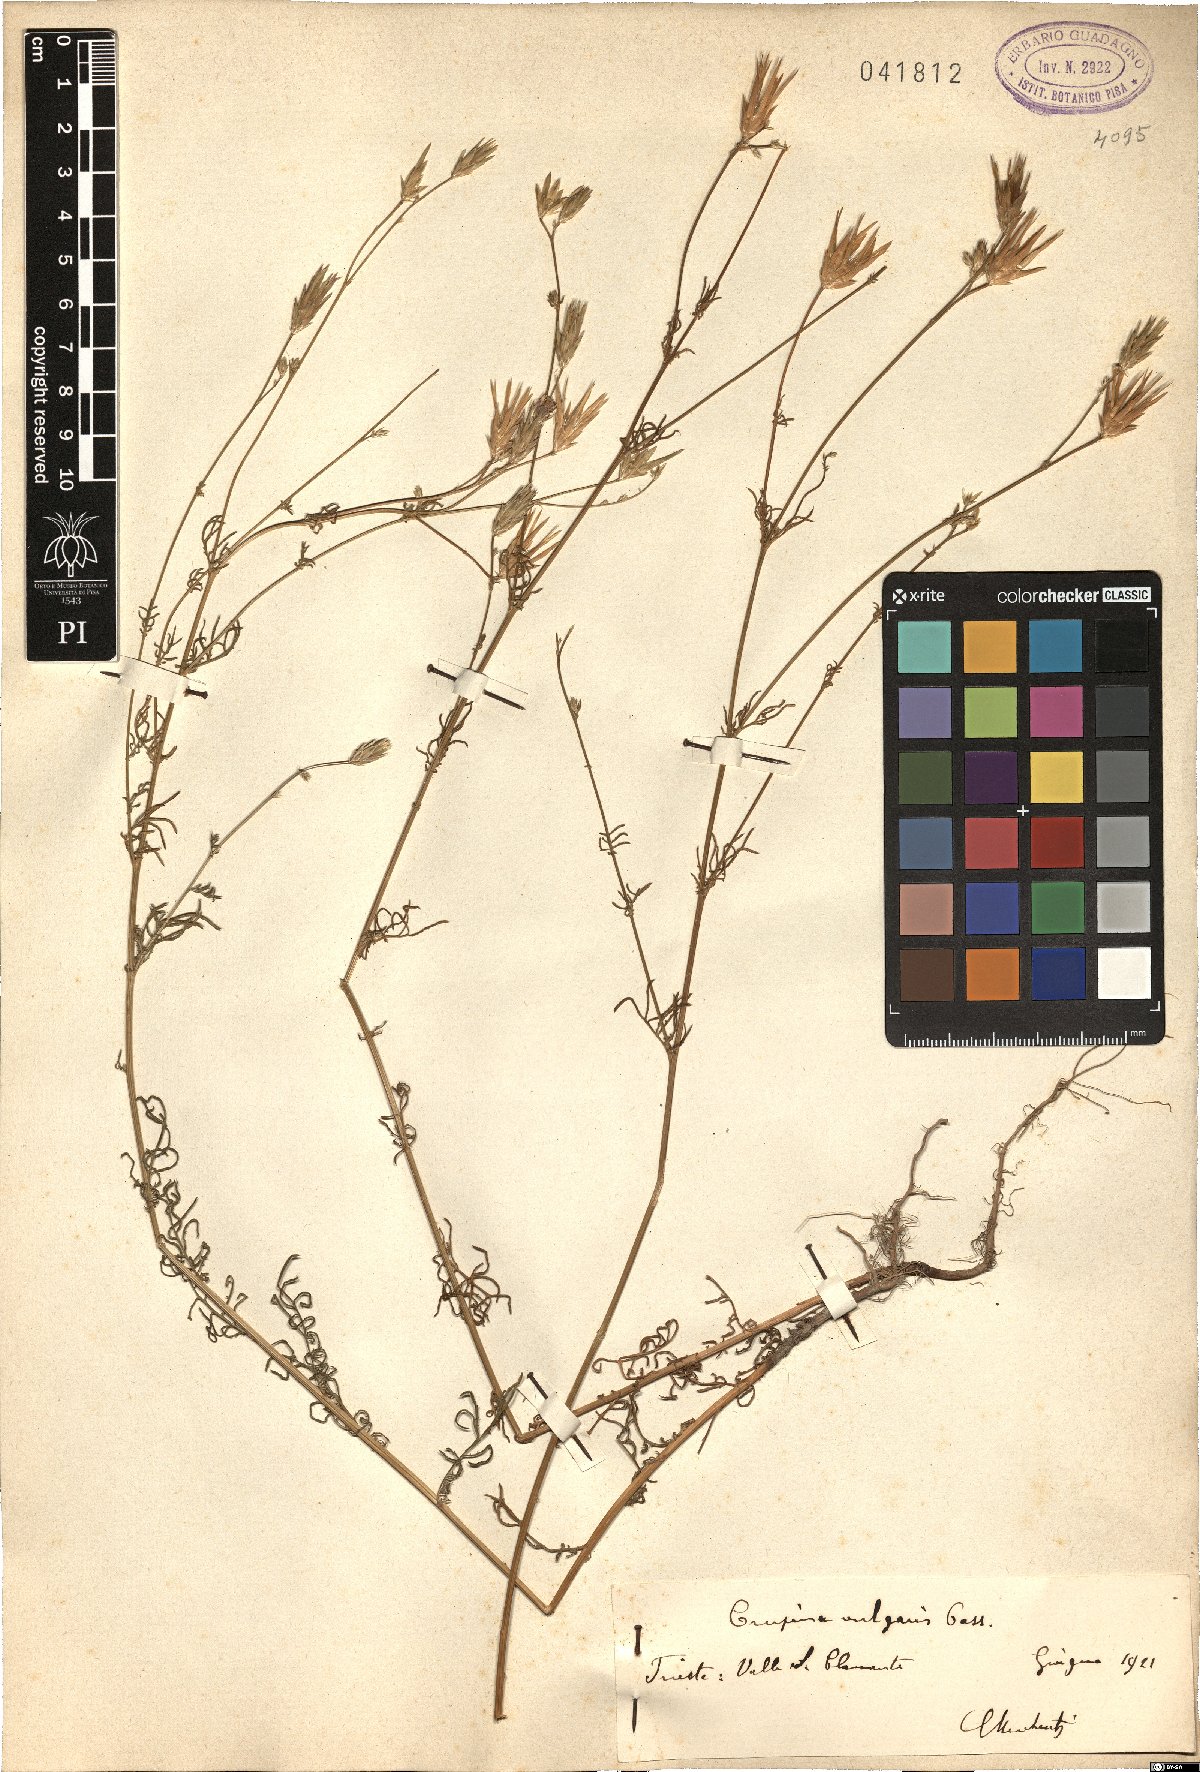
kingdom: Plantae
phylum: Tracheophyta
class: Magnoliopsida
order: Asterales
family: Asteraceae
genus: Crupina
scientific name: Crupina vulgaris
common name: Common crupina
